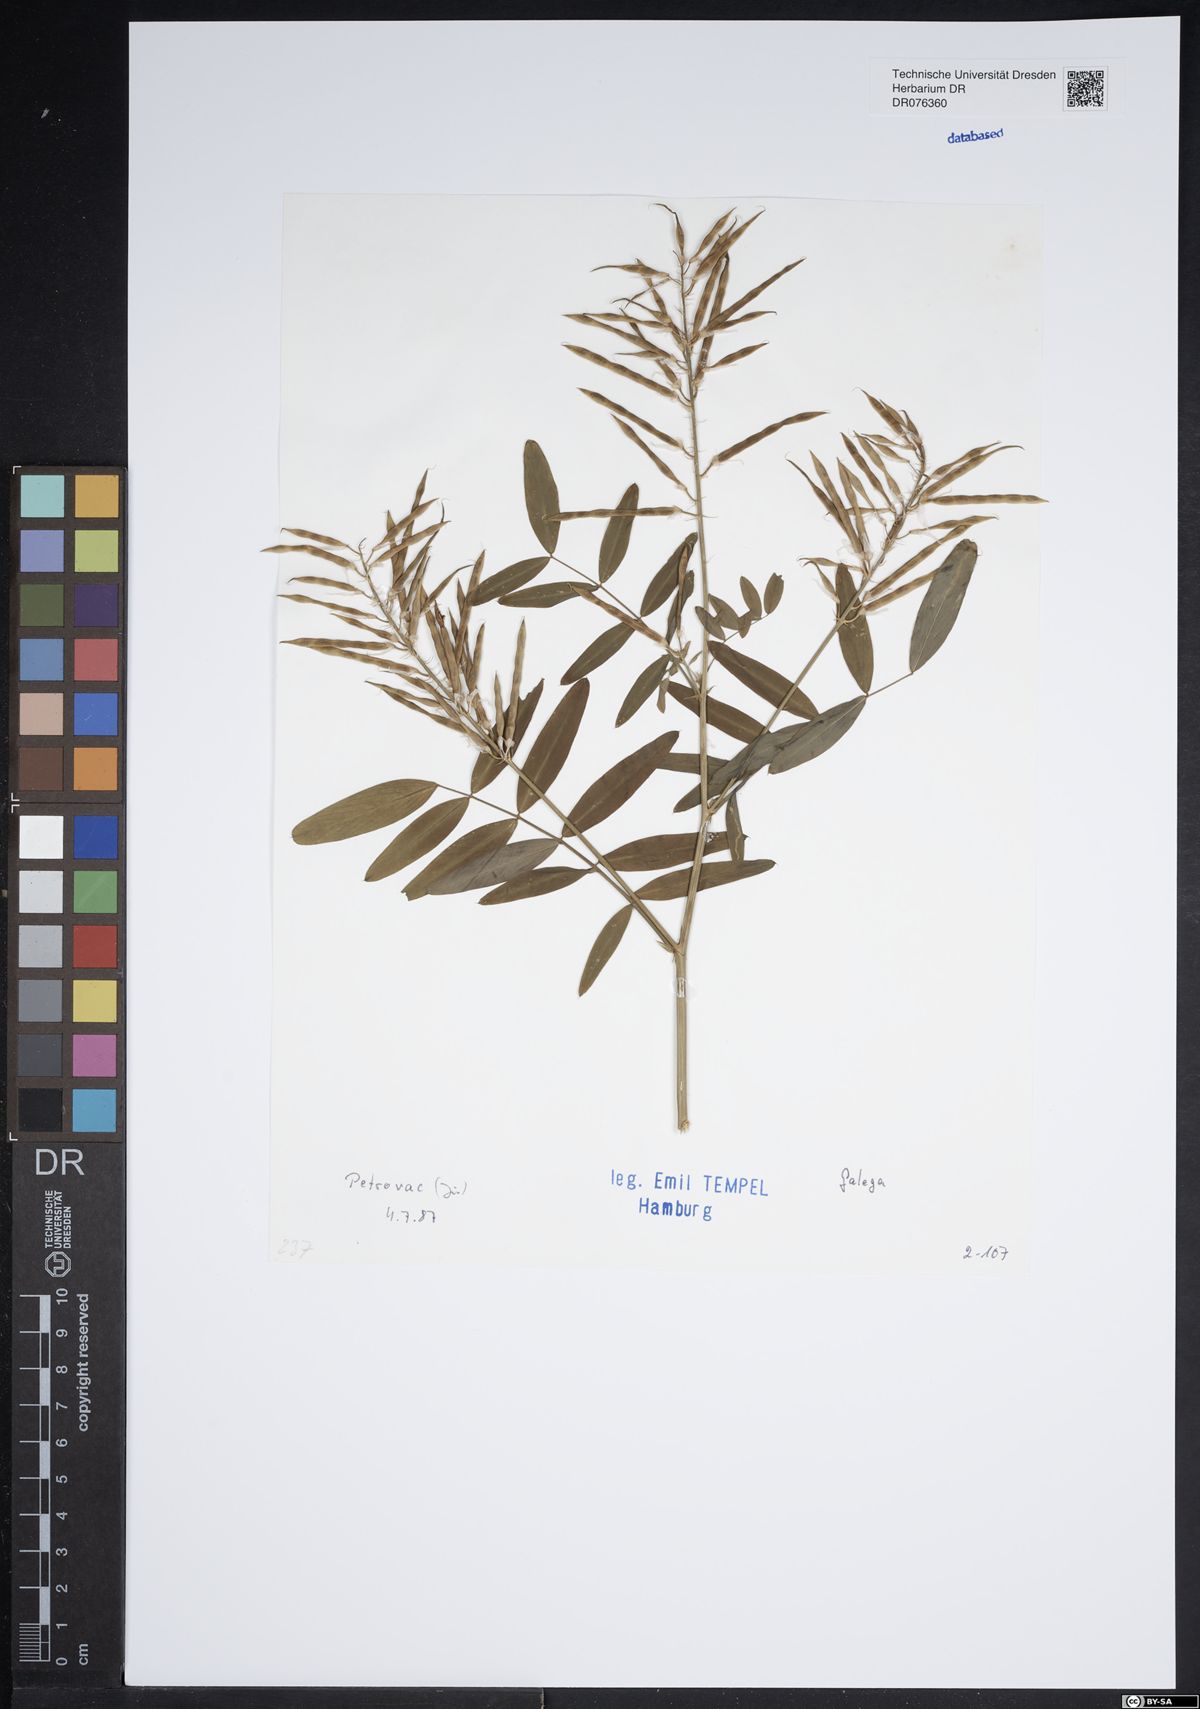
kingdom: Plantae
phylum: Tracheophyta
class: Magnoliopsida
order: Fabales
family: Fabaceae
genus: Galega
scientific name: Galega
